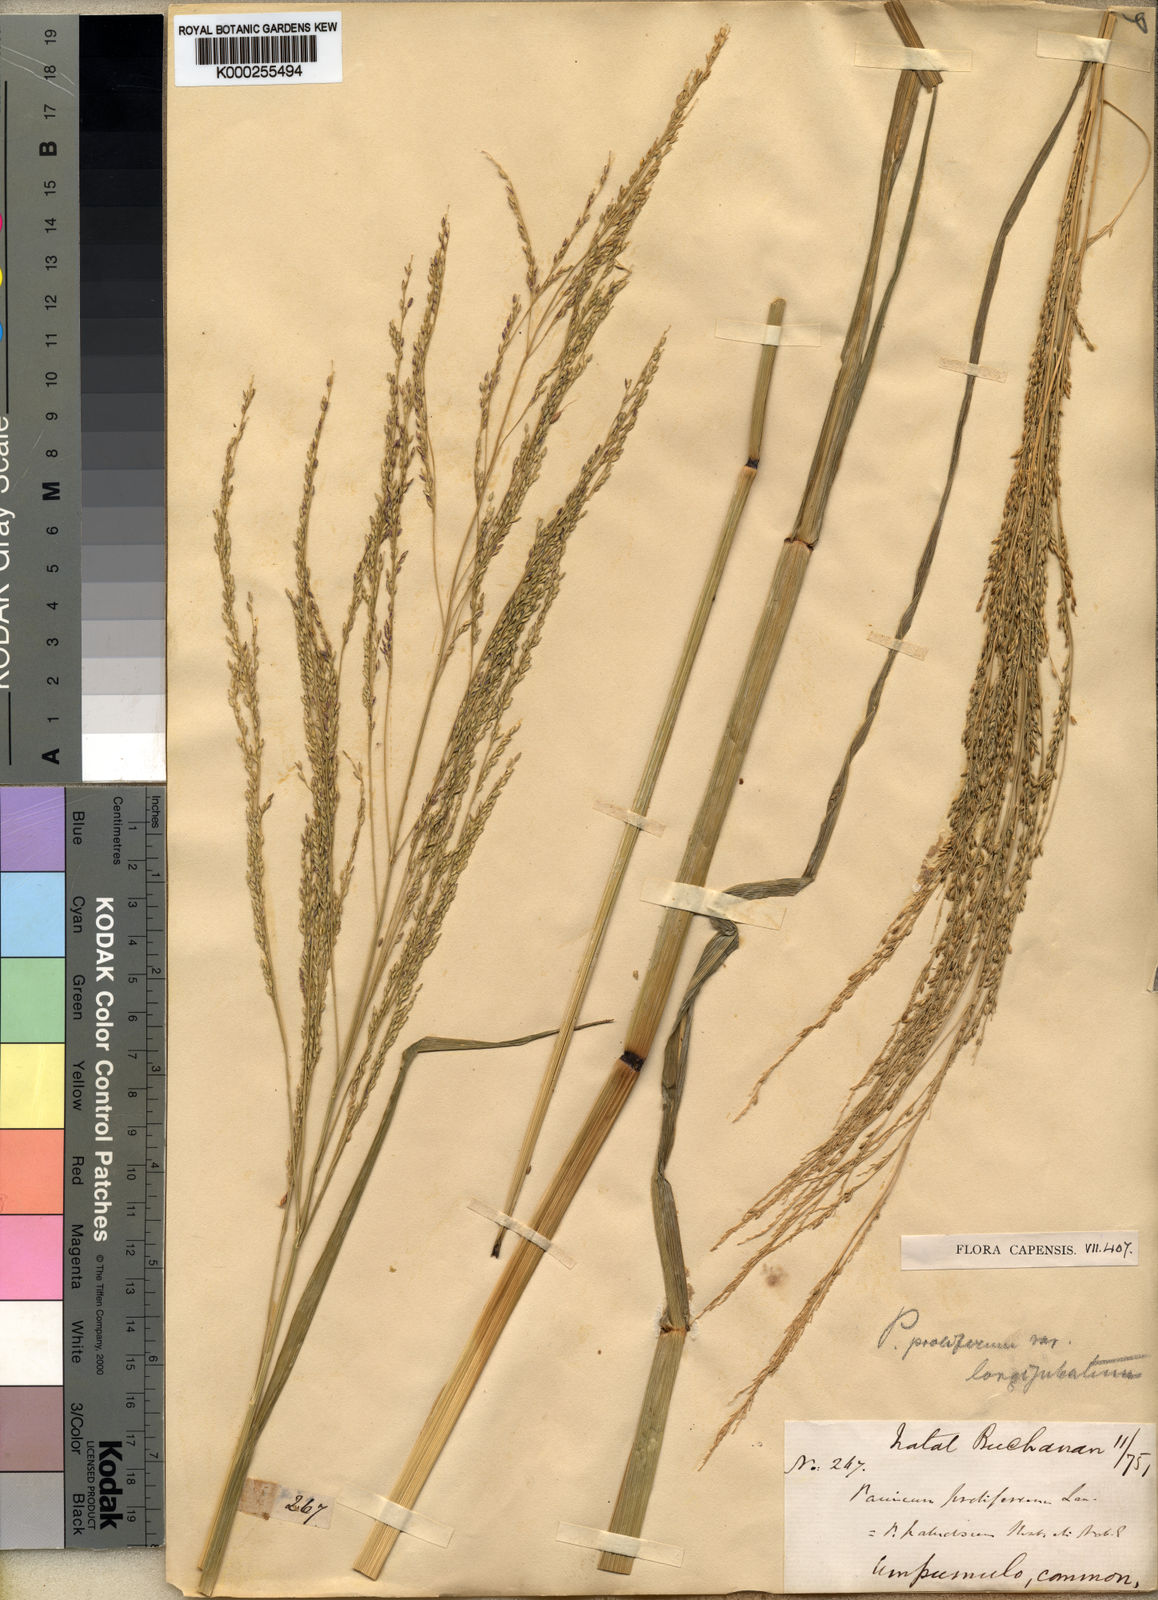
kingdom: Plantae
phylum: Tracheophyta
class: Liliopsida
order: Poales
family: Poaceae
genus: Panicum
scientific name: Panicum subalbidum
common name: Elbow buffalo grass
